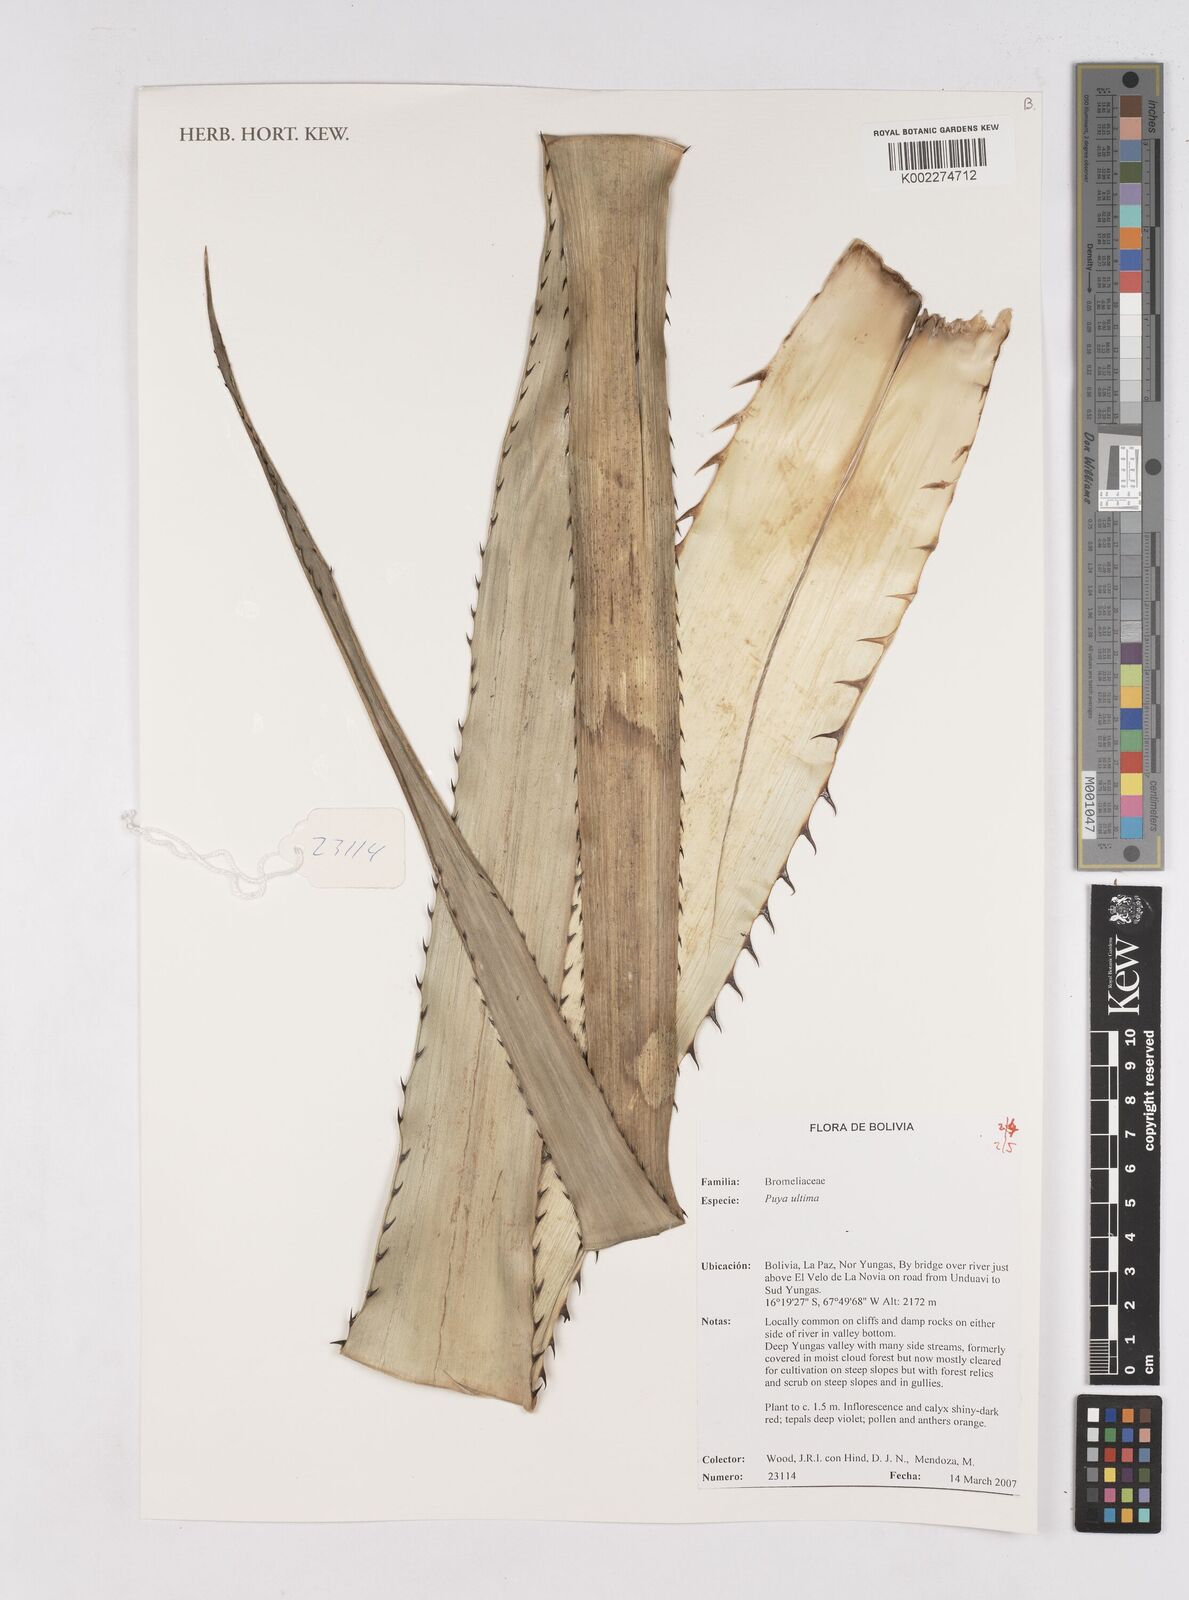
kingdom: Plantae
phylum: Tracheophyta
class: Liliopsida
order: Poales
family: Bromeliaceae
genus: Puya
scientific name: Puya
